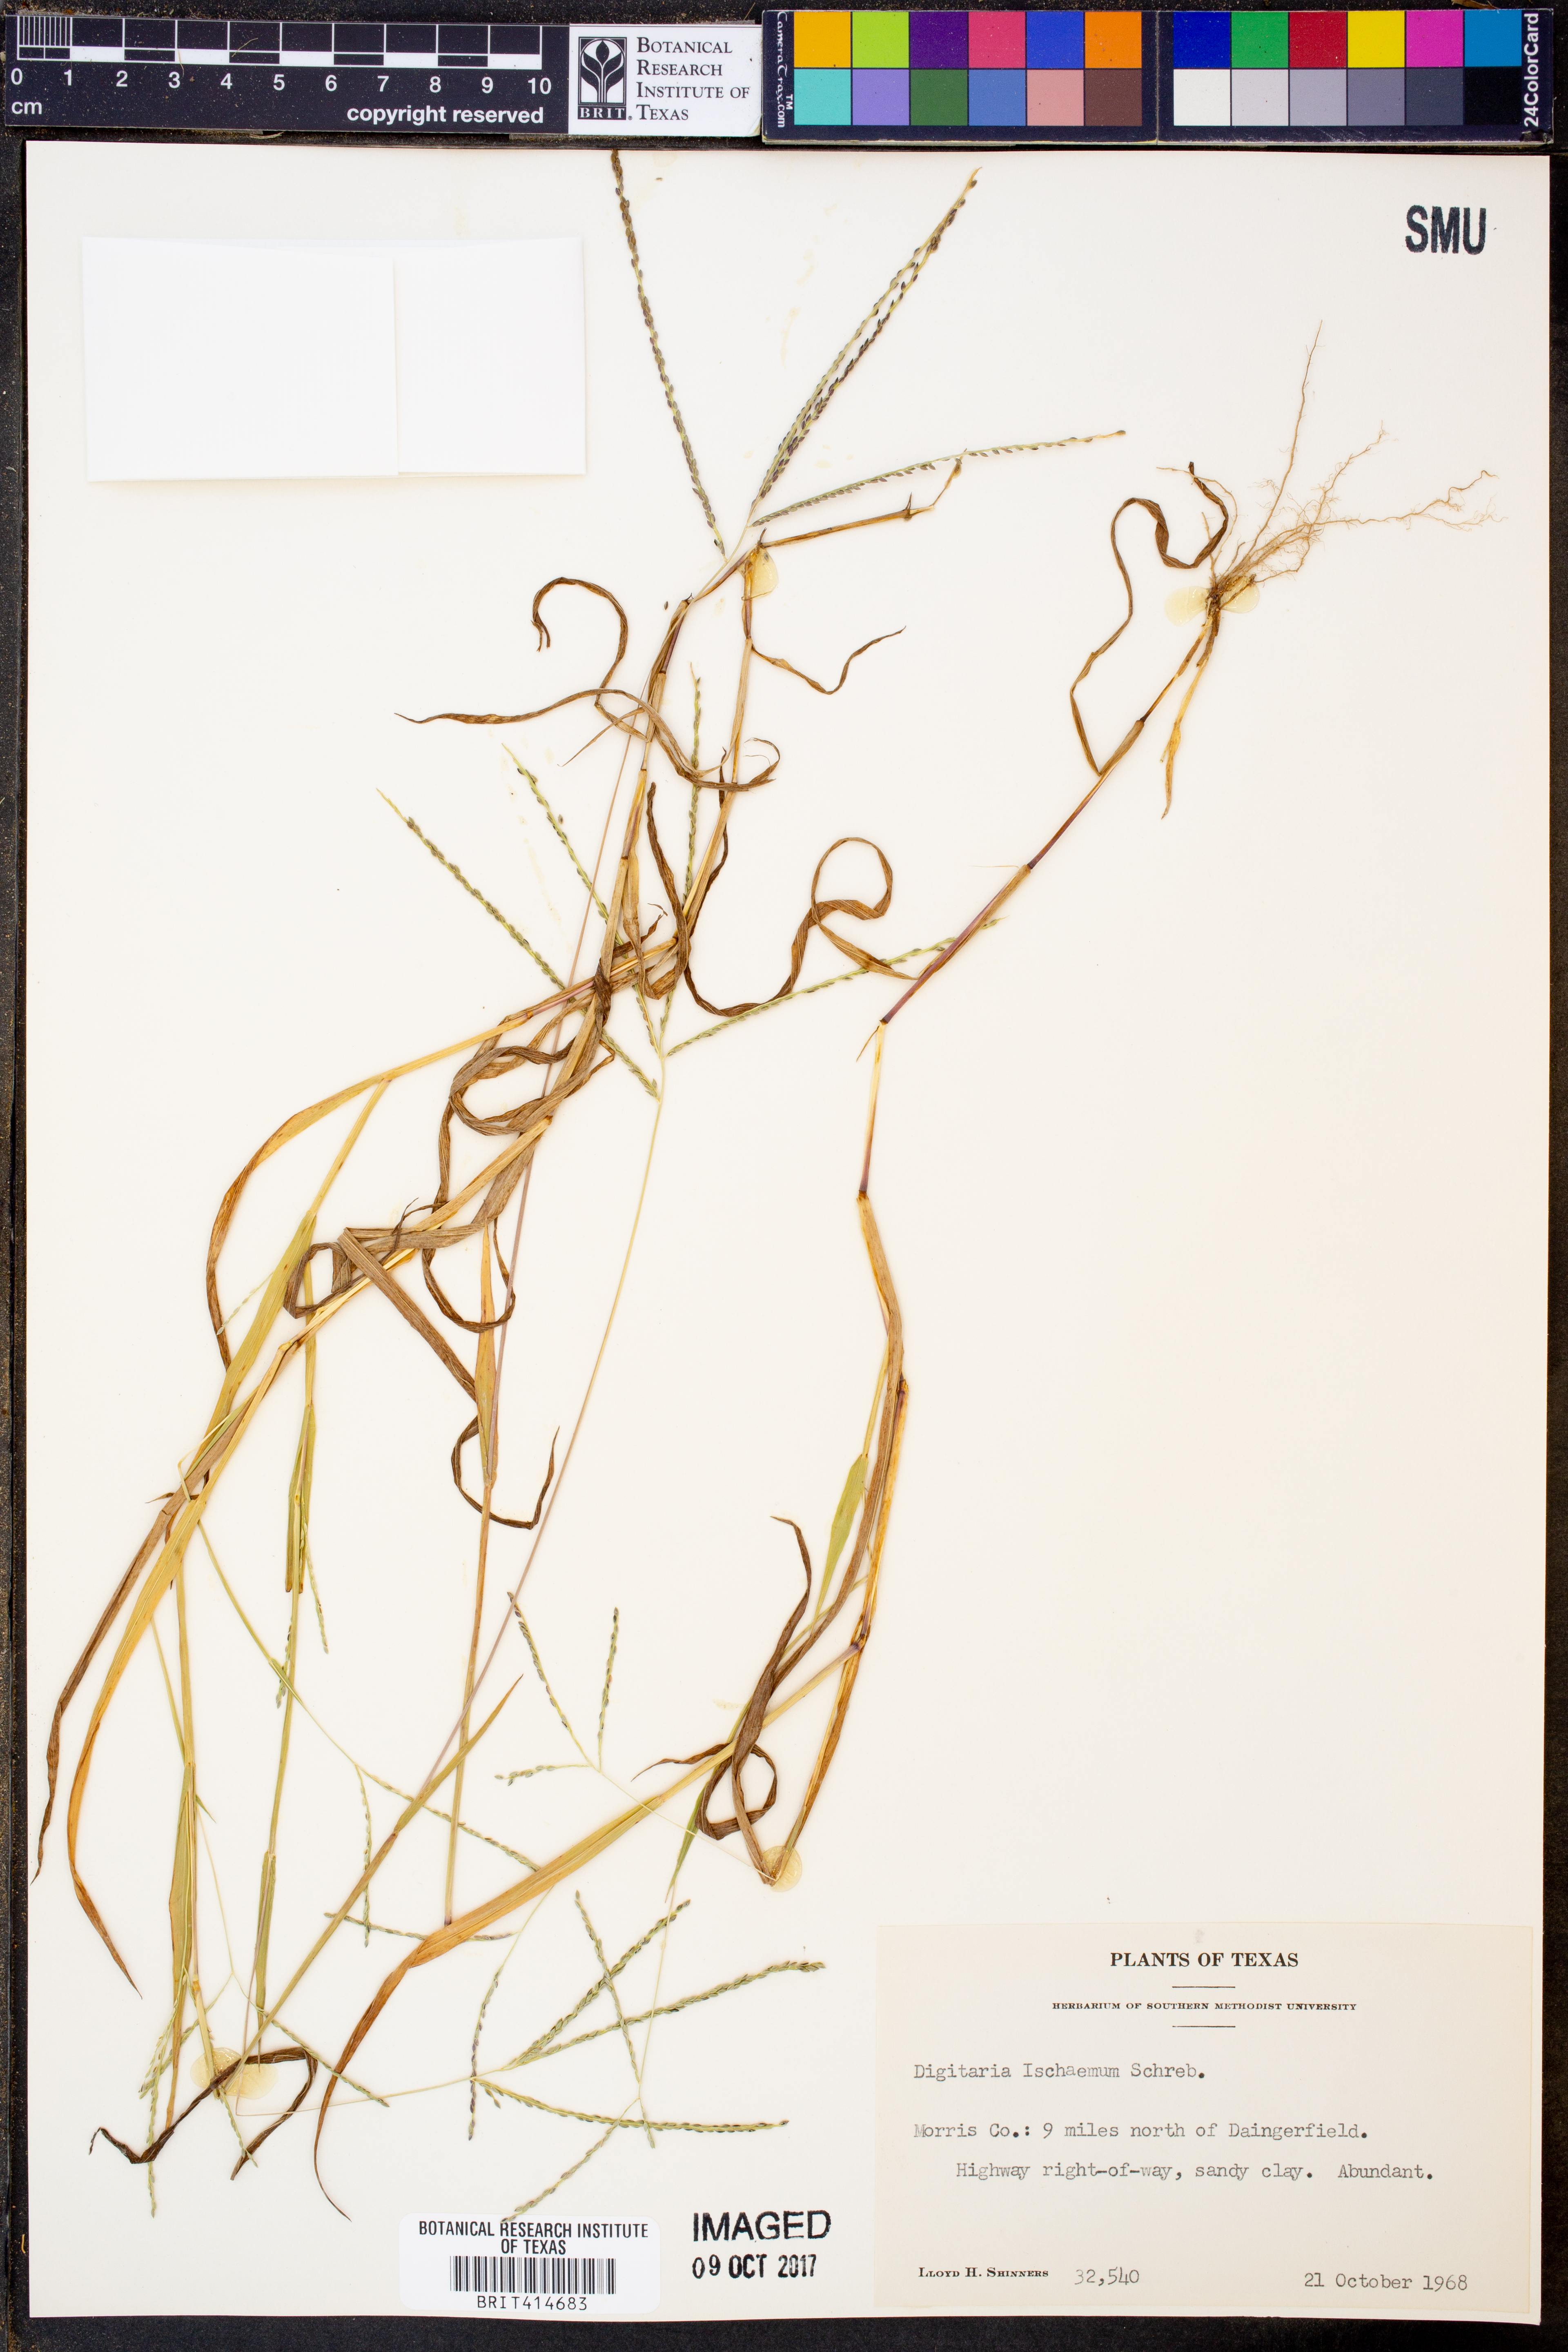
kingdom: Plantae
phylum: Tracheophyta
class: Liliopsida
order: Poales
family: Poaceae
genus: Digitaria
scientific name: Digitaria ischaemum
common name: Smooth crabgrass
